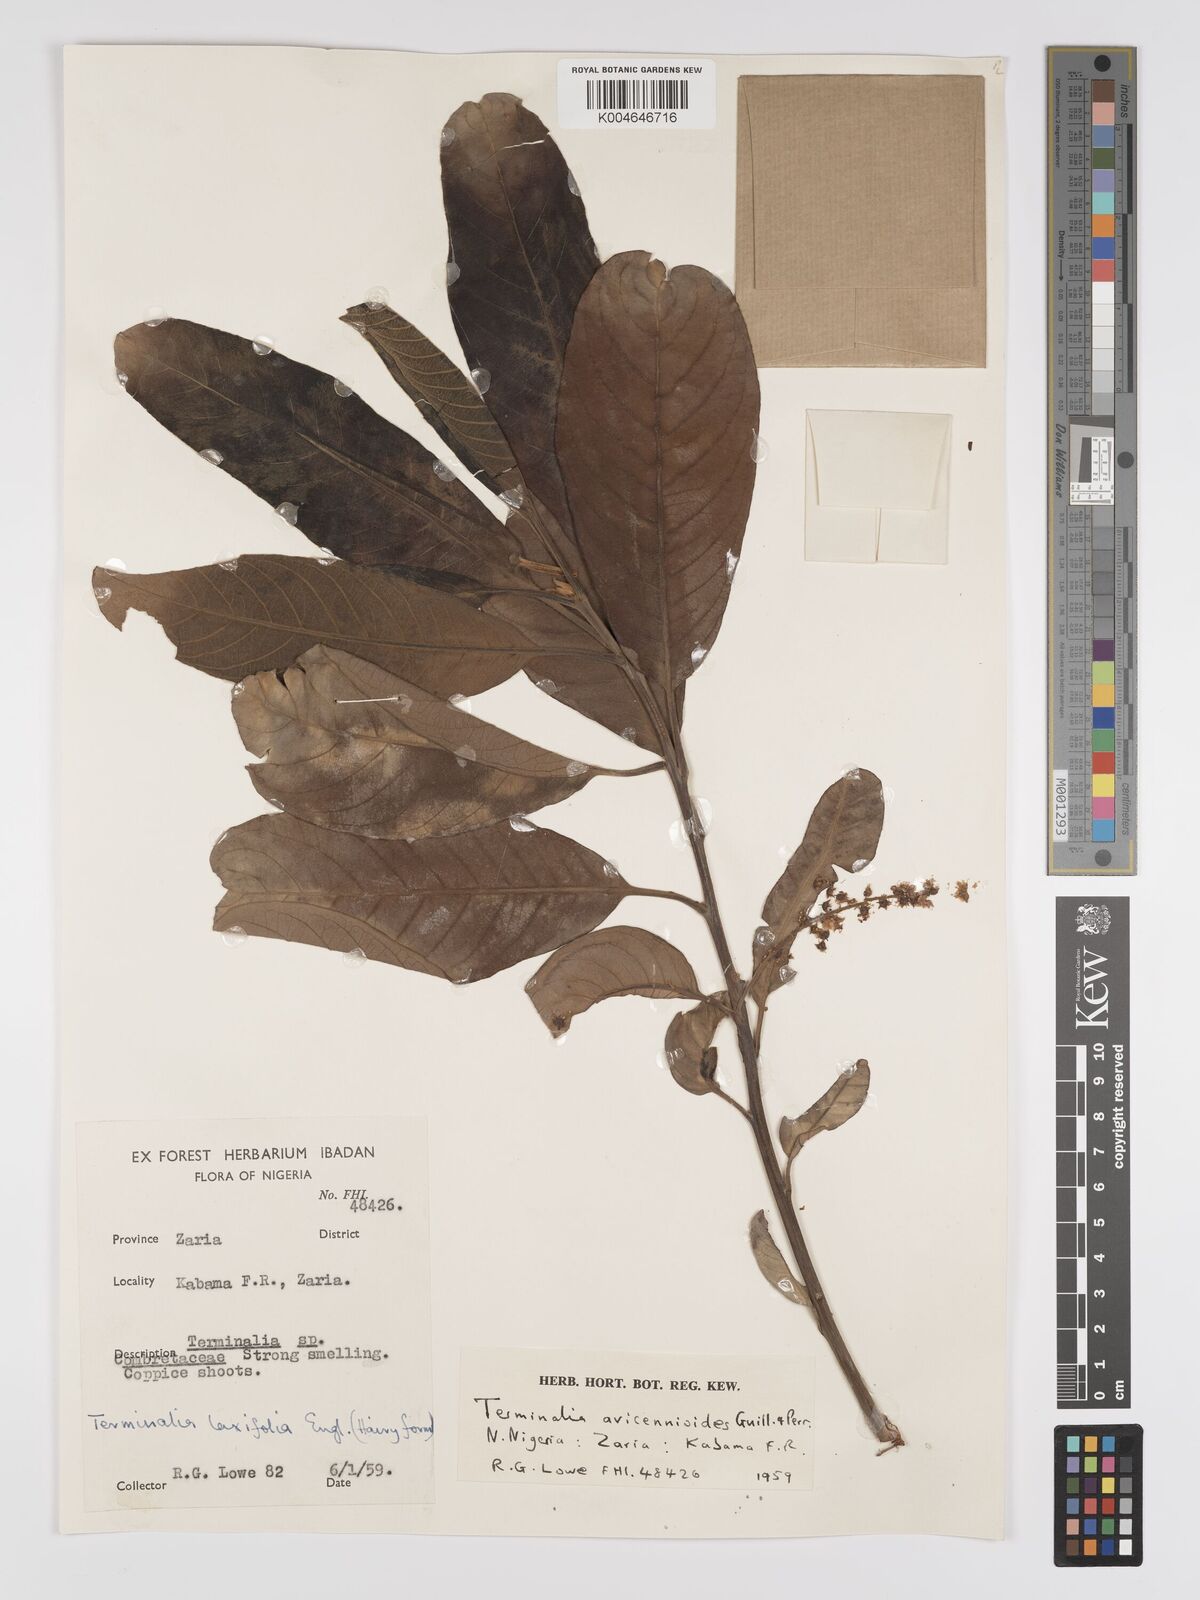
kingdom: Plantae
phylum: Tracheophyta
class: Magnoliopsida
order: Myrtales
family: Combretaceae
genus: Terminalia
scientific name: Terminalia avicennioides
